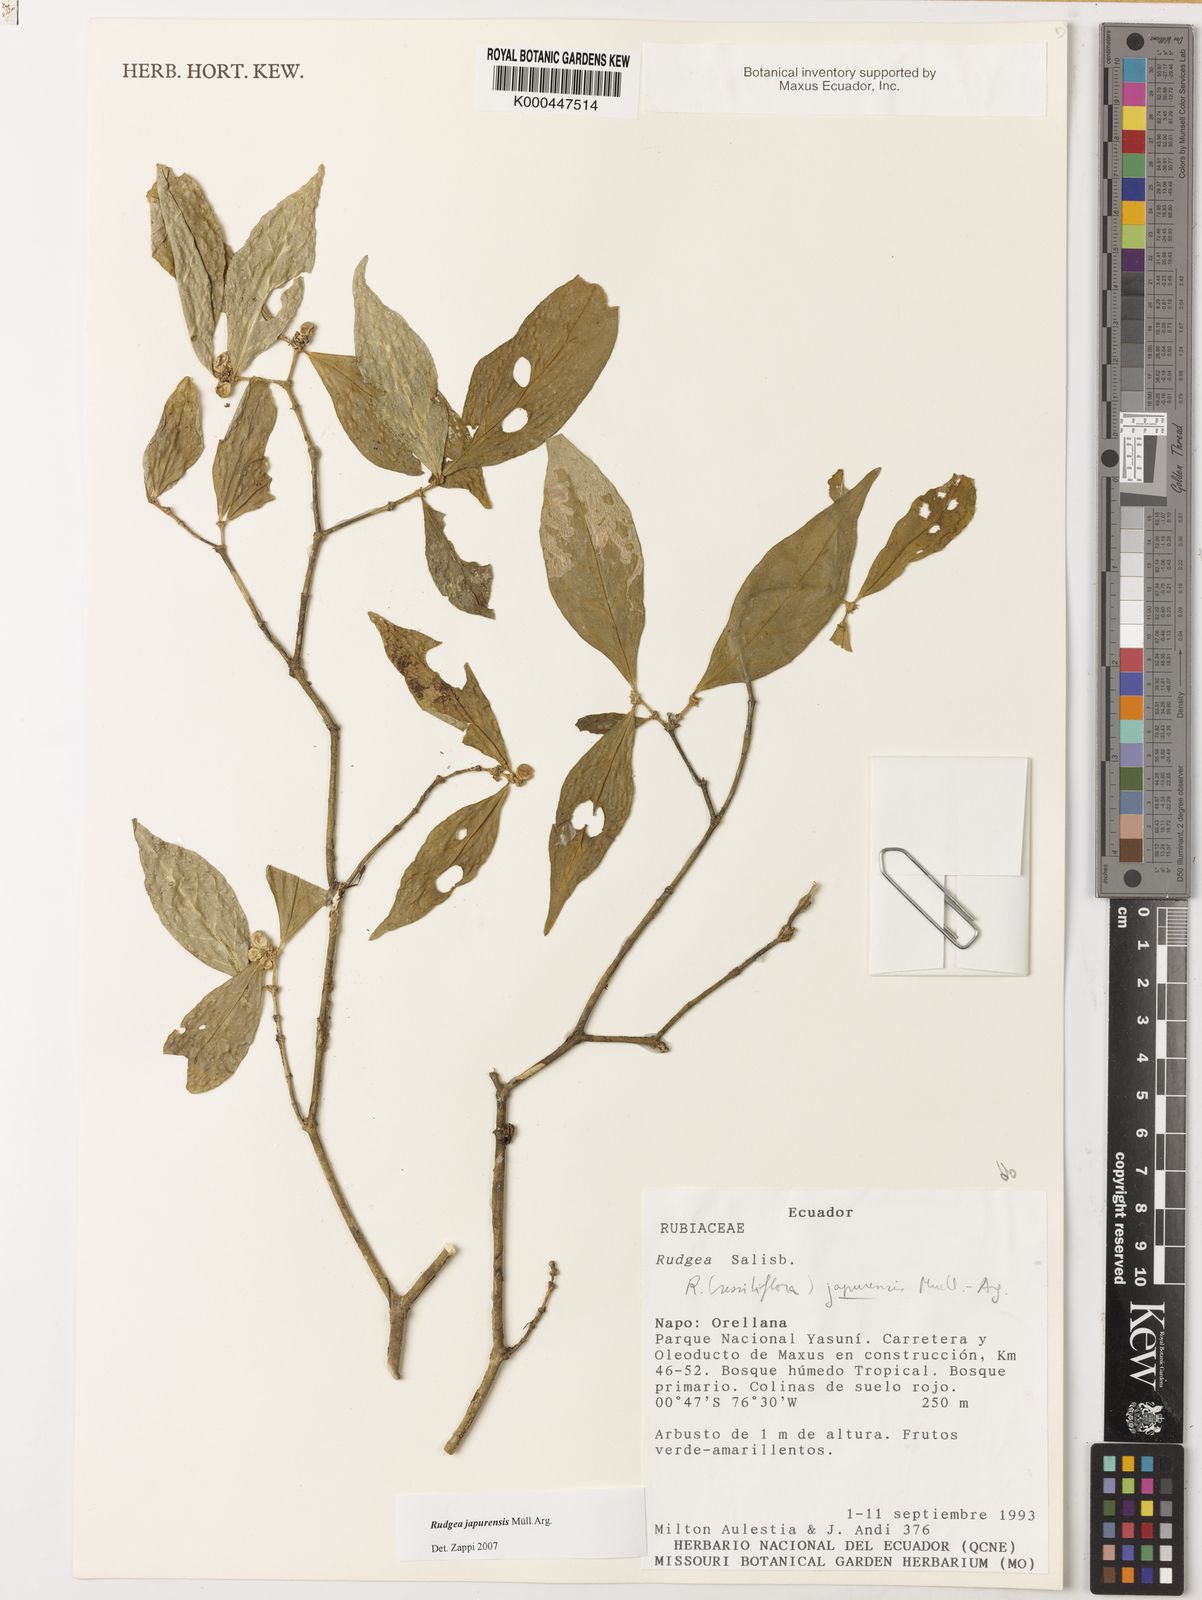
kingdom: Plantae
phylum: Tracheophyta
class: Magnoliopsida
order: Gentianales
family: Rubiaceae
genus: Rudgea
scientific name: Rudgea panurensis
